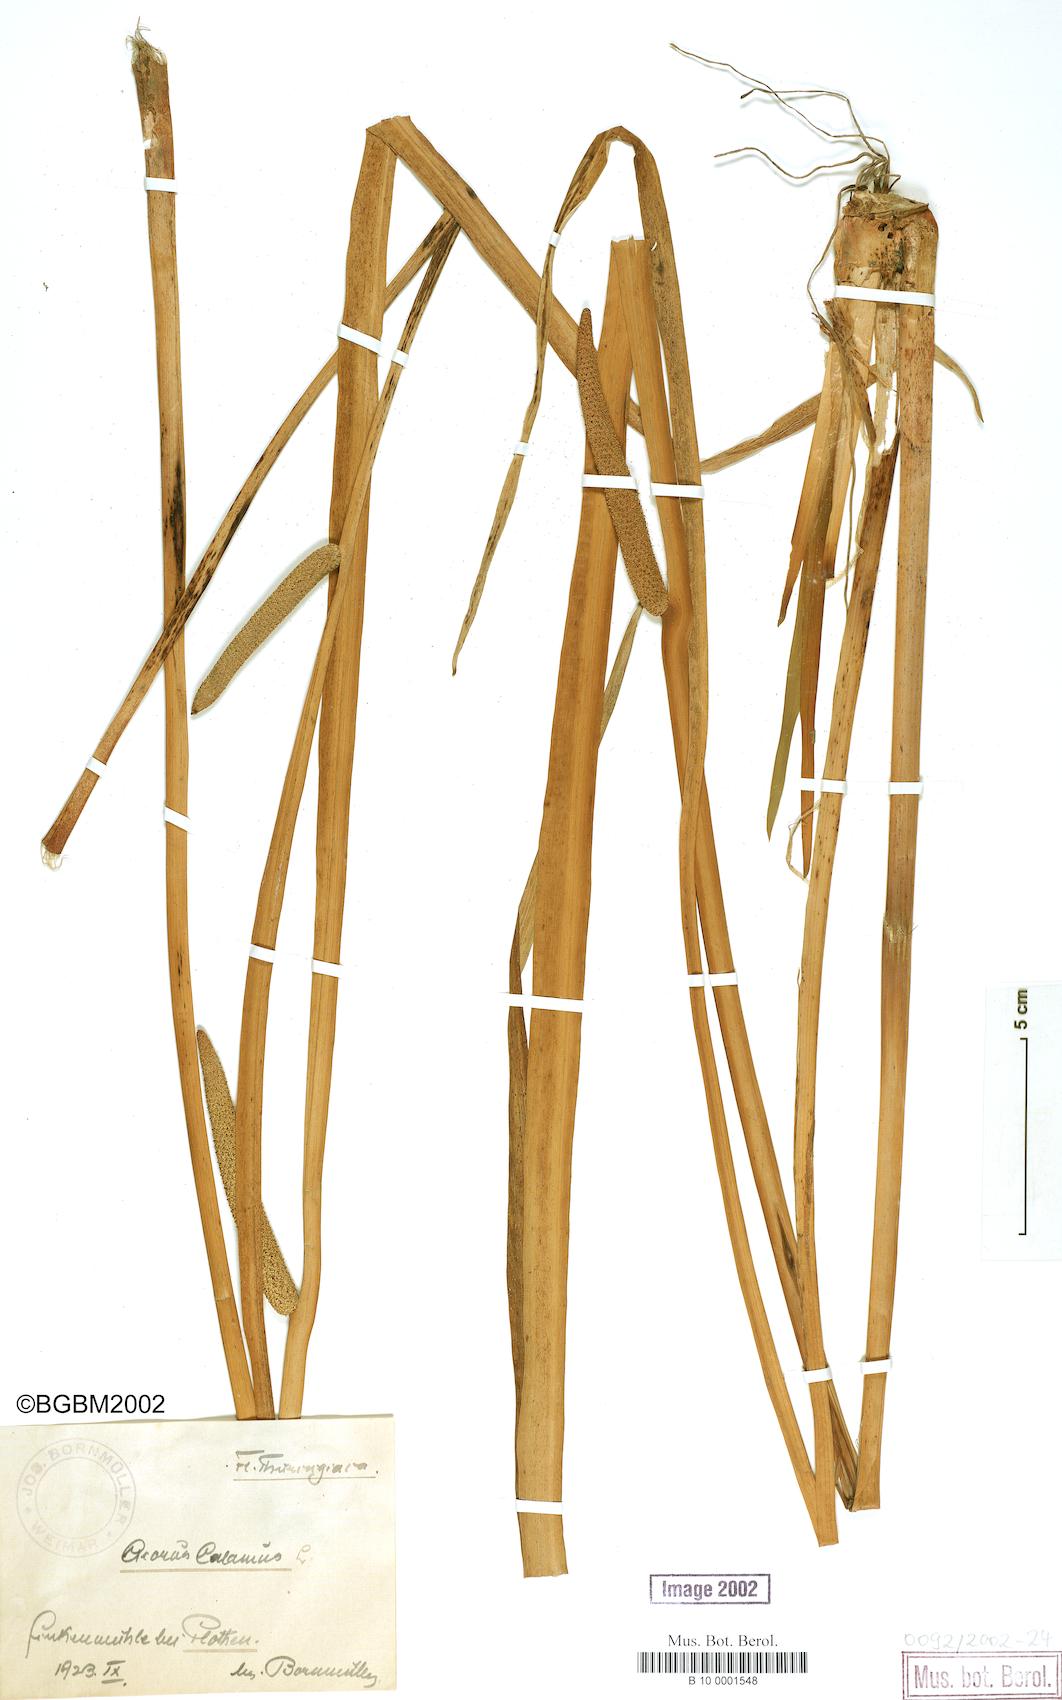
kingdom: Plantae
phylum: Tracheophyta
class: Liliopsida
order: Acorales
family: Acoraceae
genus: Acorus
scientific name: Acorus calamus
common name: Sweet-flag
